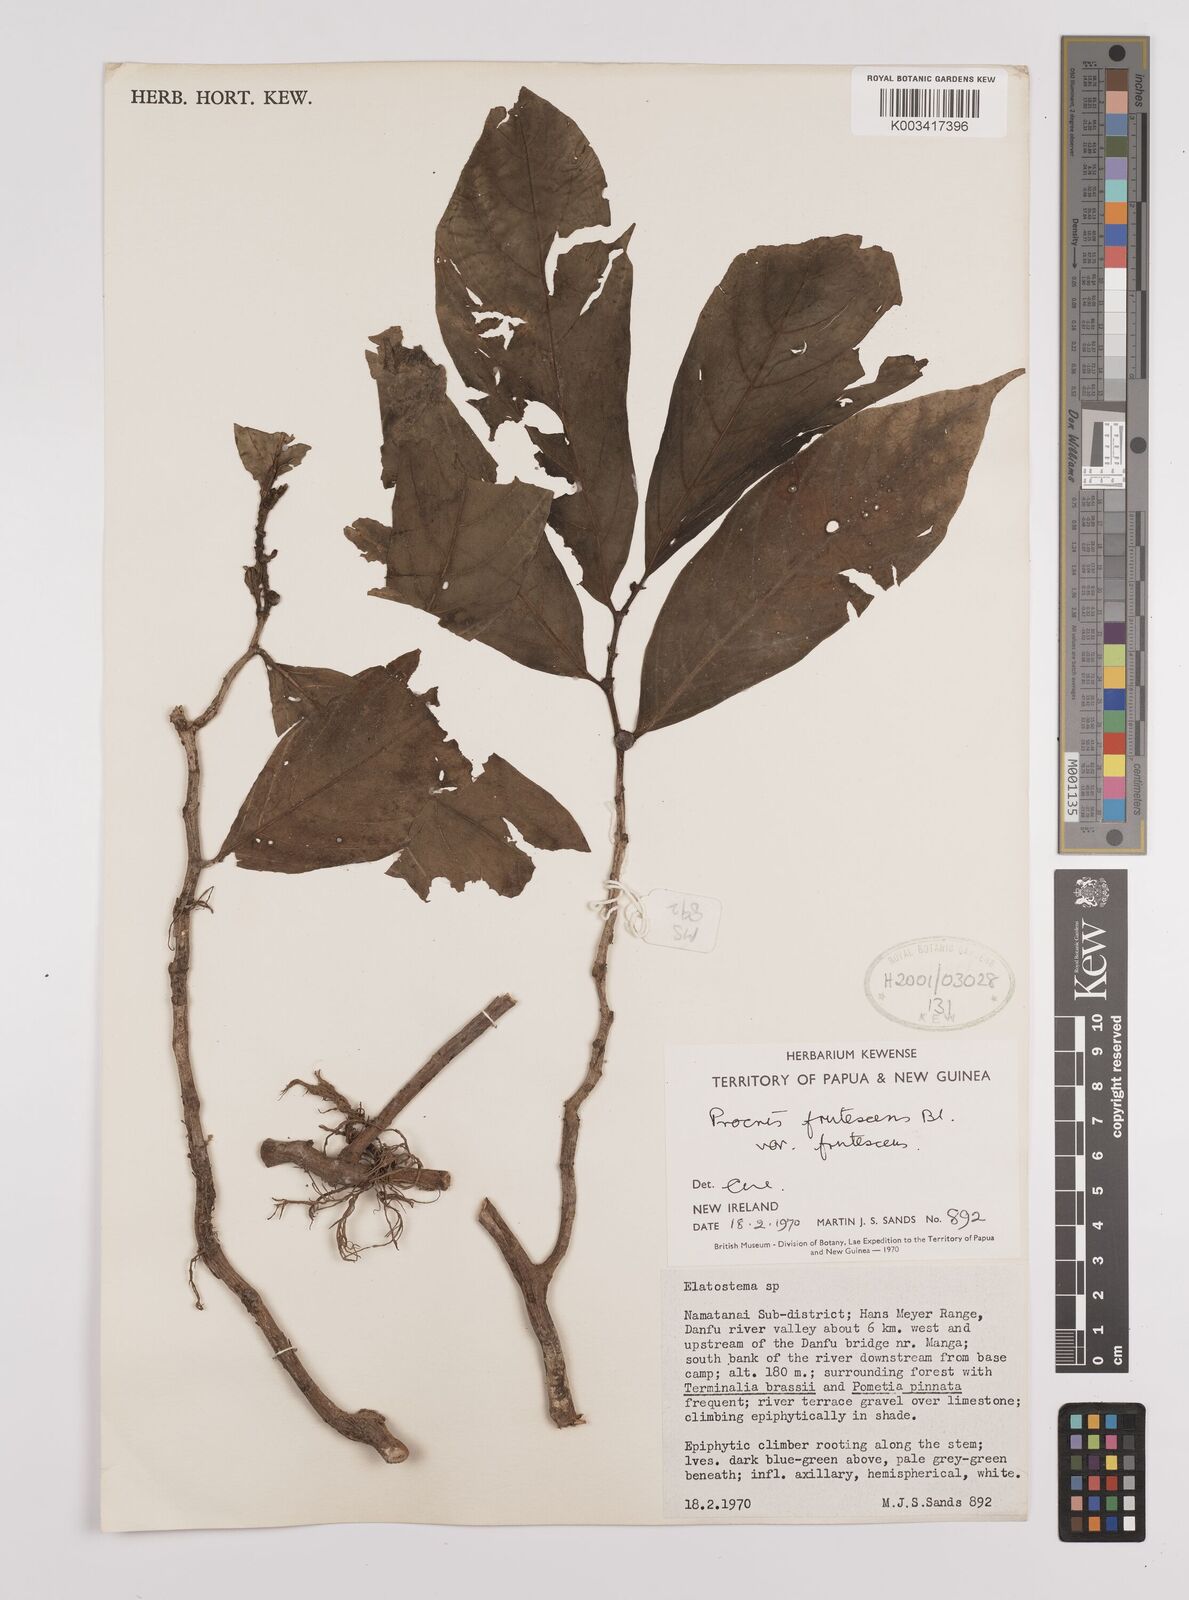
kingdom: Plantae
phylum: Tracheophyta
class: Magnoliopsida
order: Rosales
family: Urticaceae
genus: Procris
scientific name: Procris frutescens
